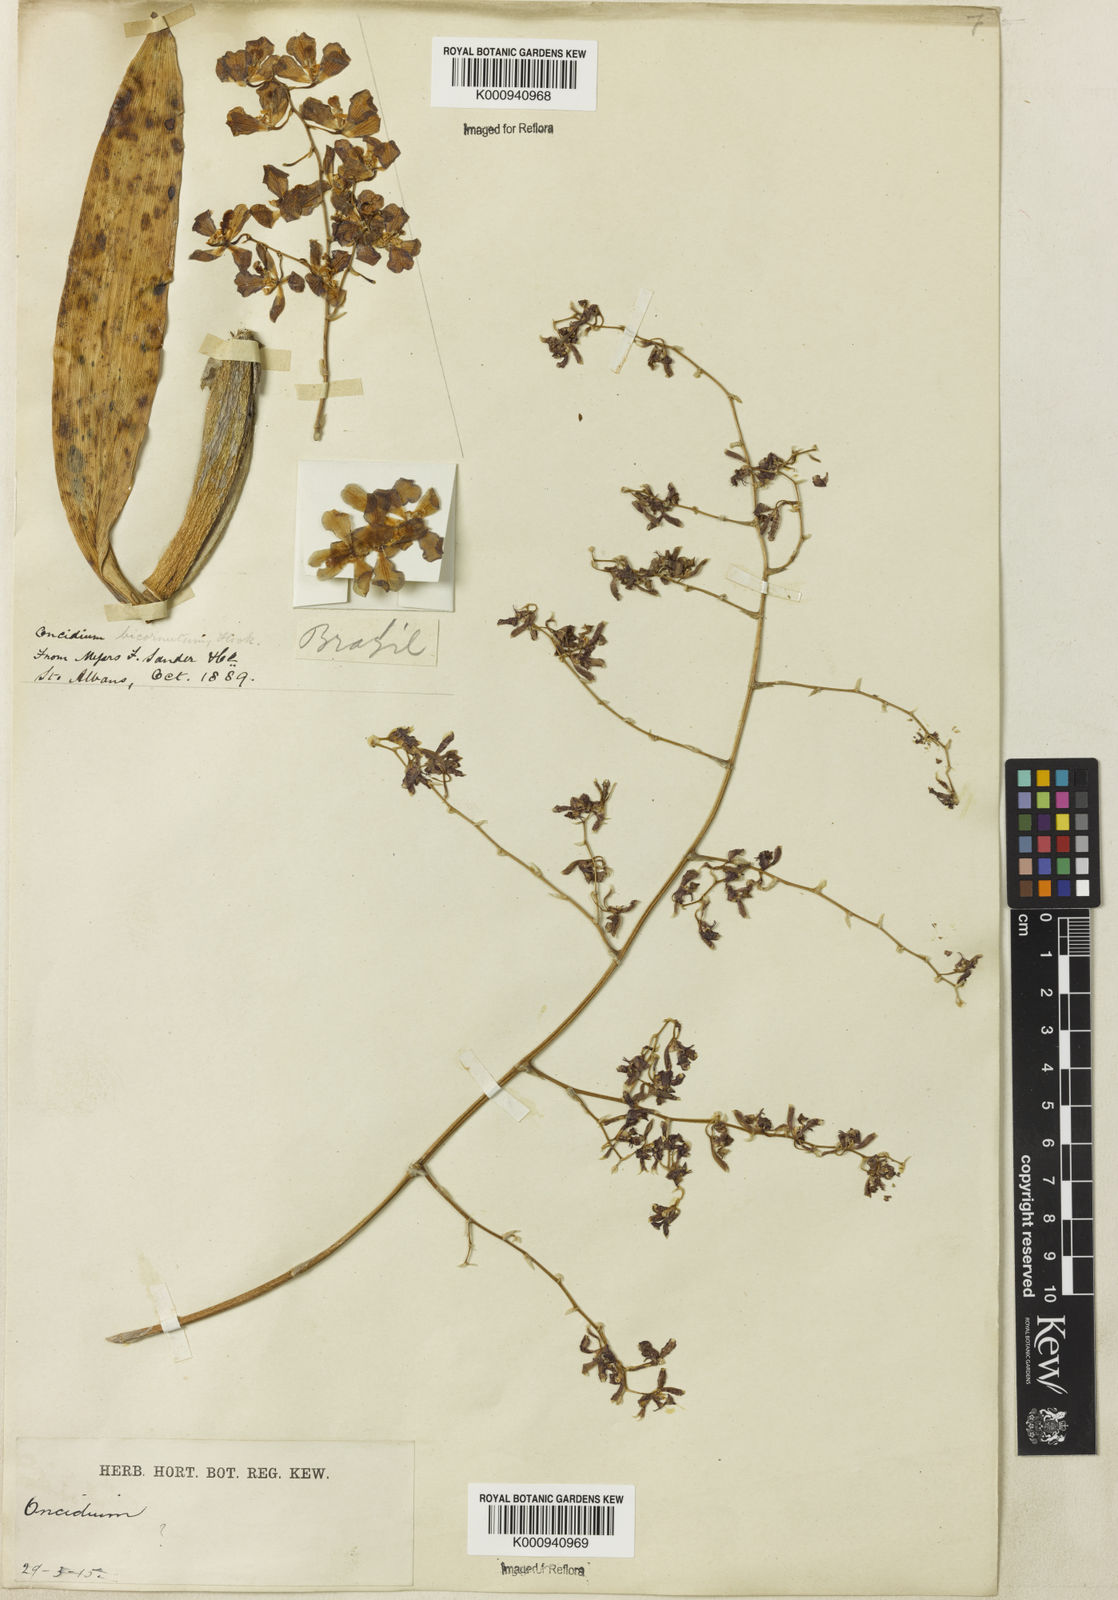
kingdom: Plantae
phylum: Tracheophyta
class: Liliopsida
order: Asparagales
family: Orchidaceae
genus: Oncidium
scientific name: Oncidium
